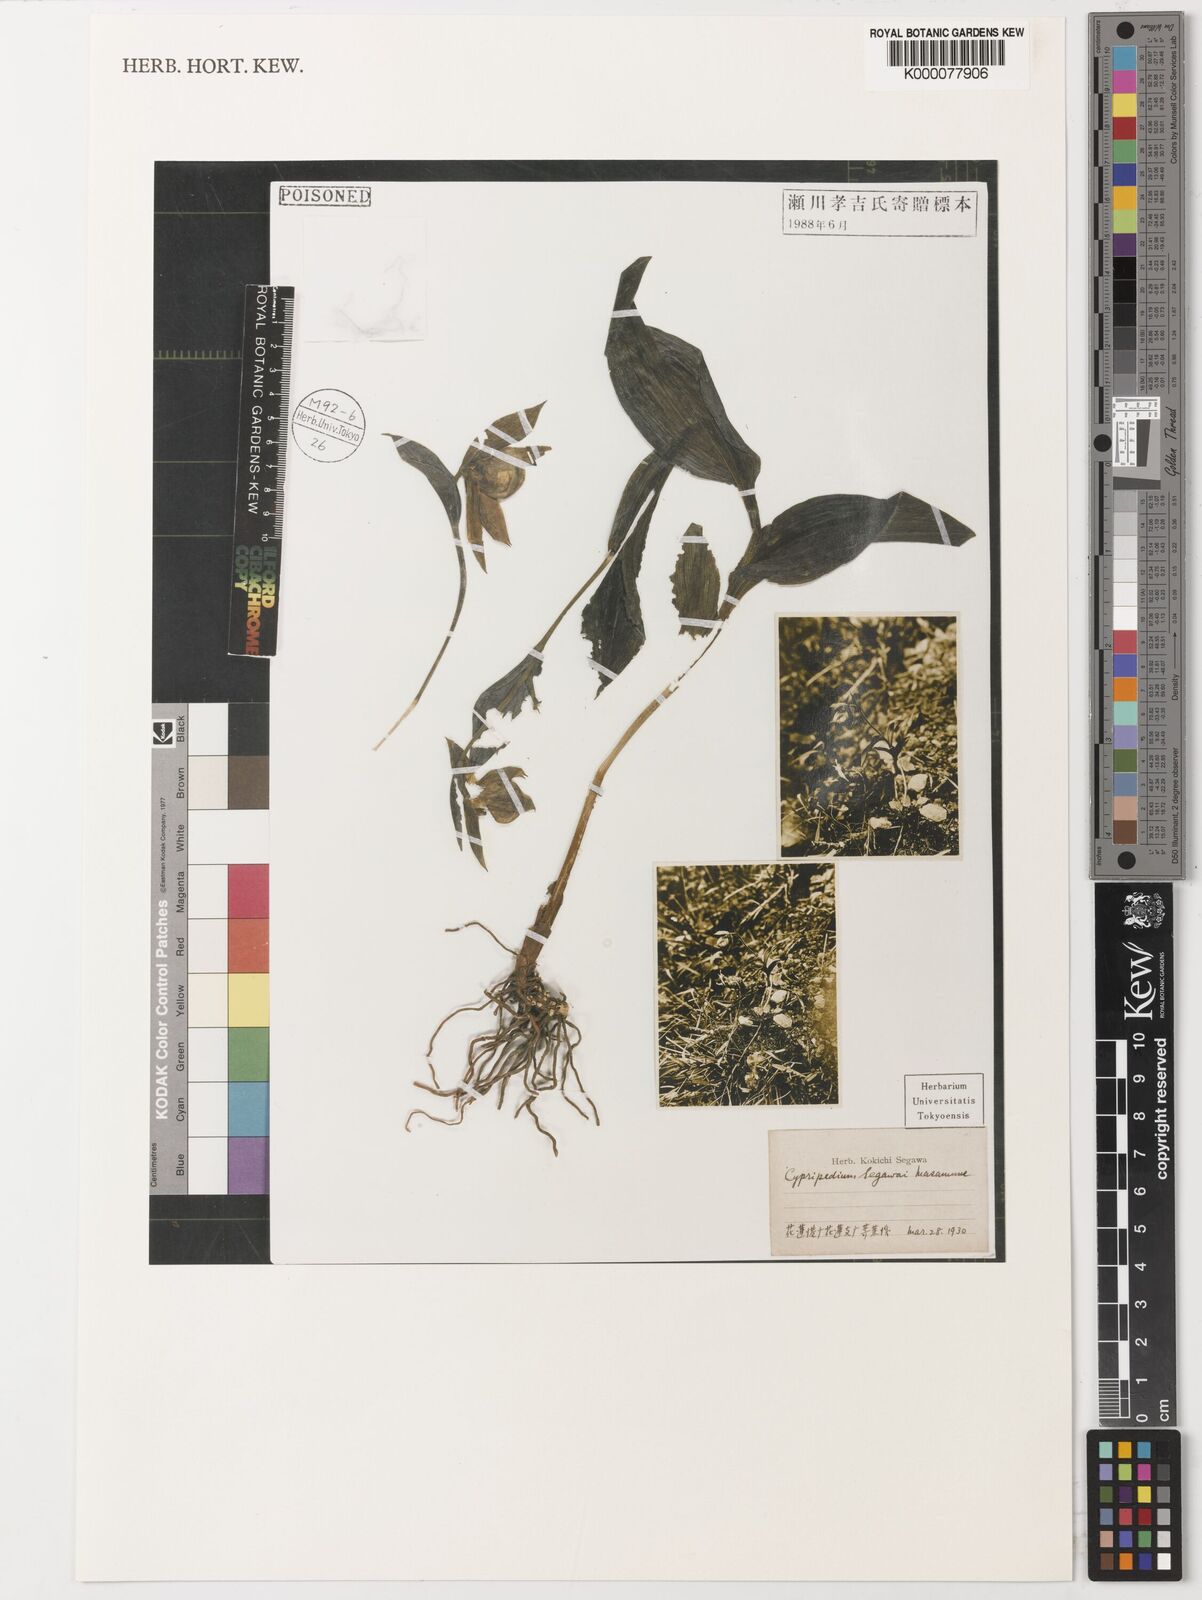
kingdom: Plantae
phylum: Tracheophyta
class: Liliopsida
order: Asparagales
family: Orchidaceae
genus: Cypripedium
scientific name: Cypripedium
